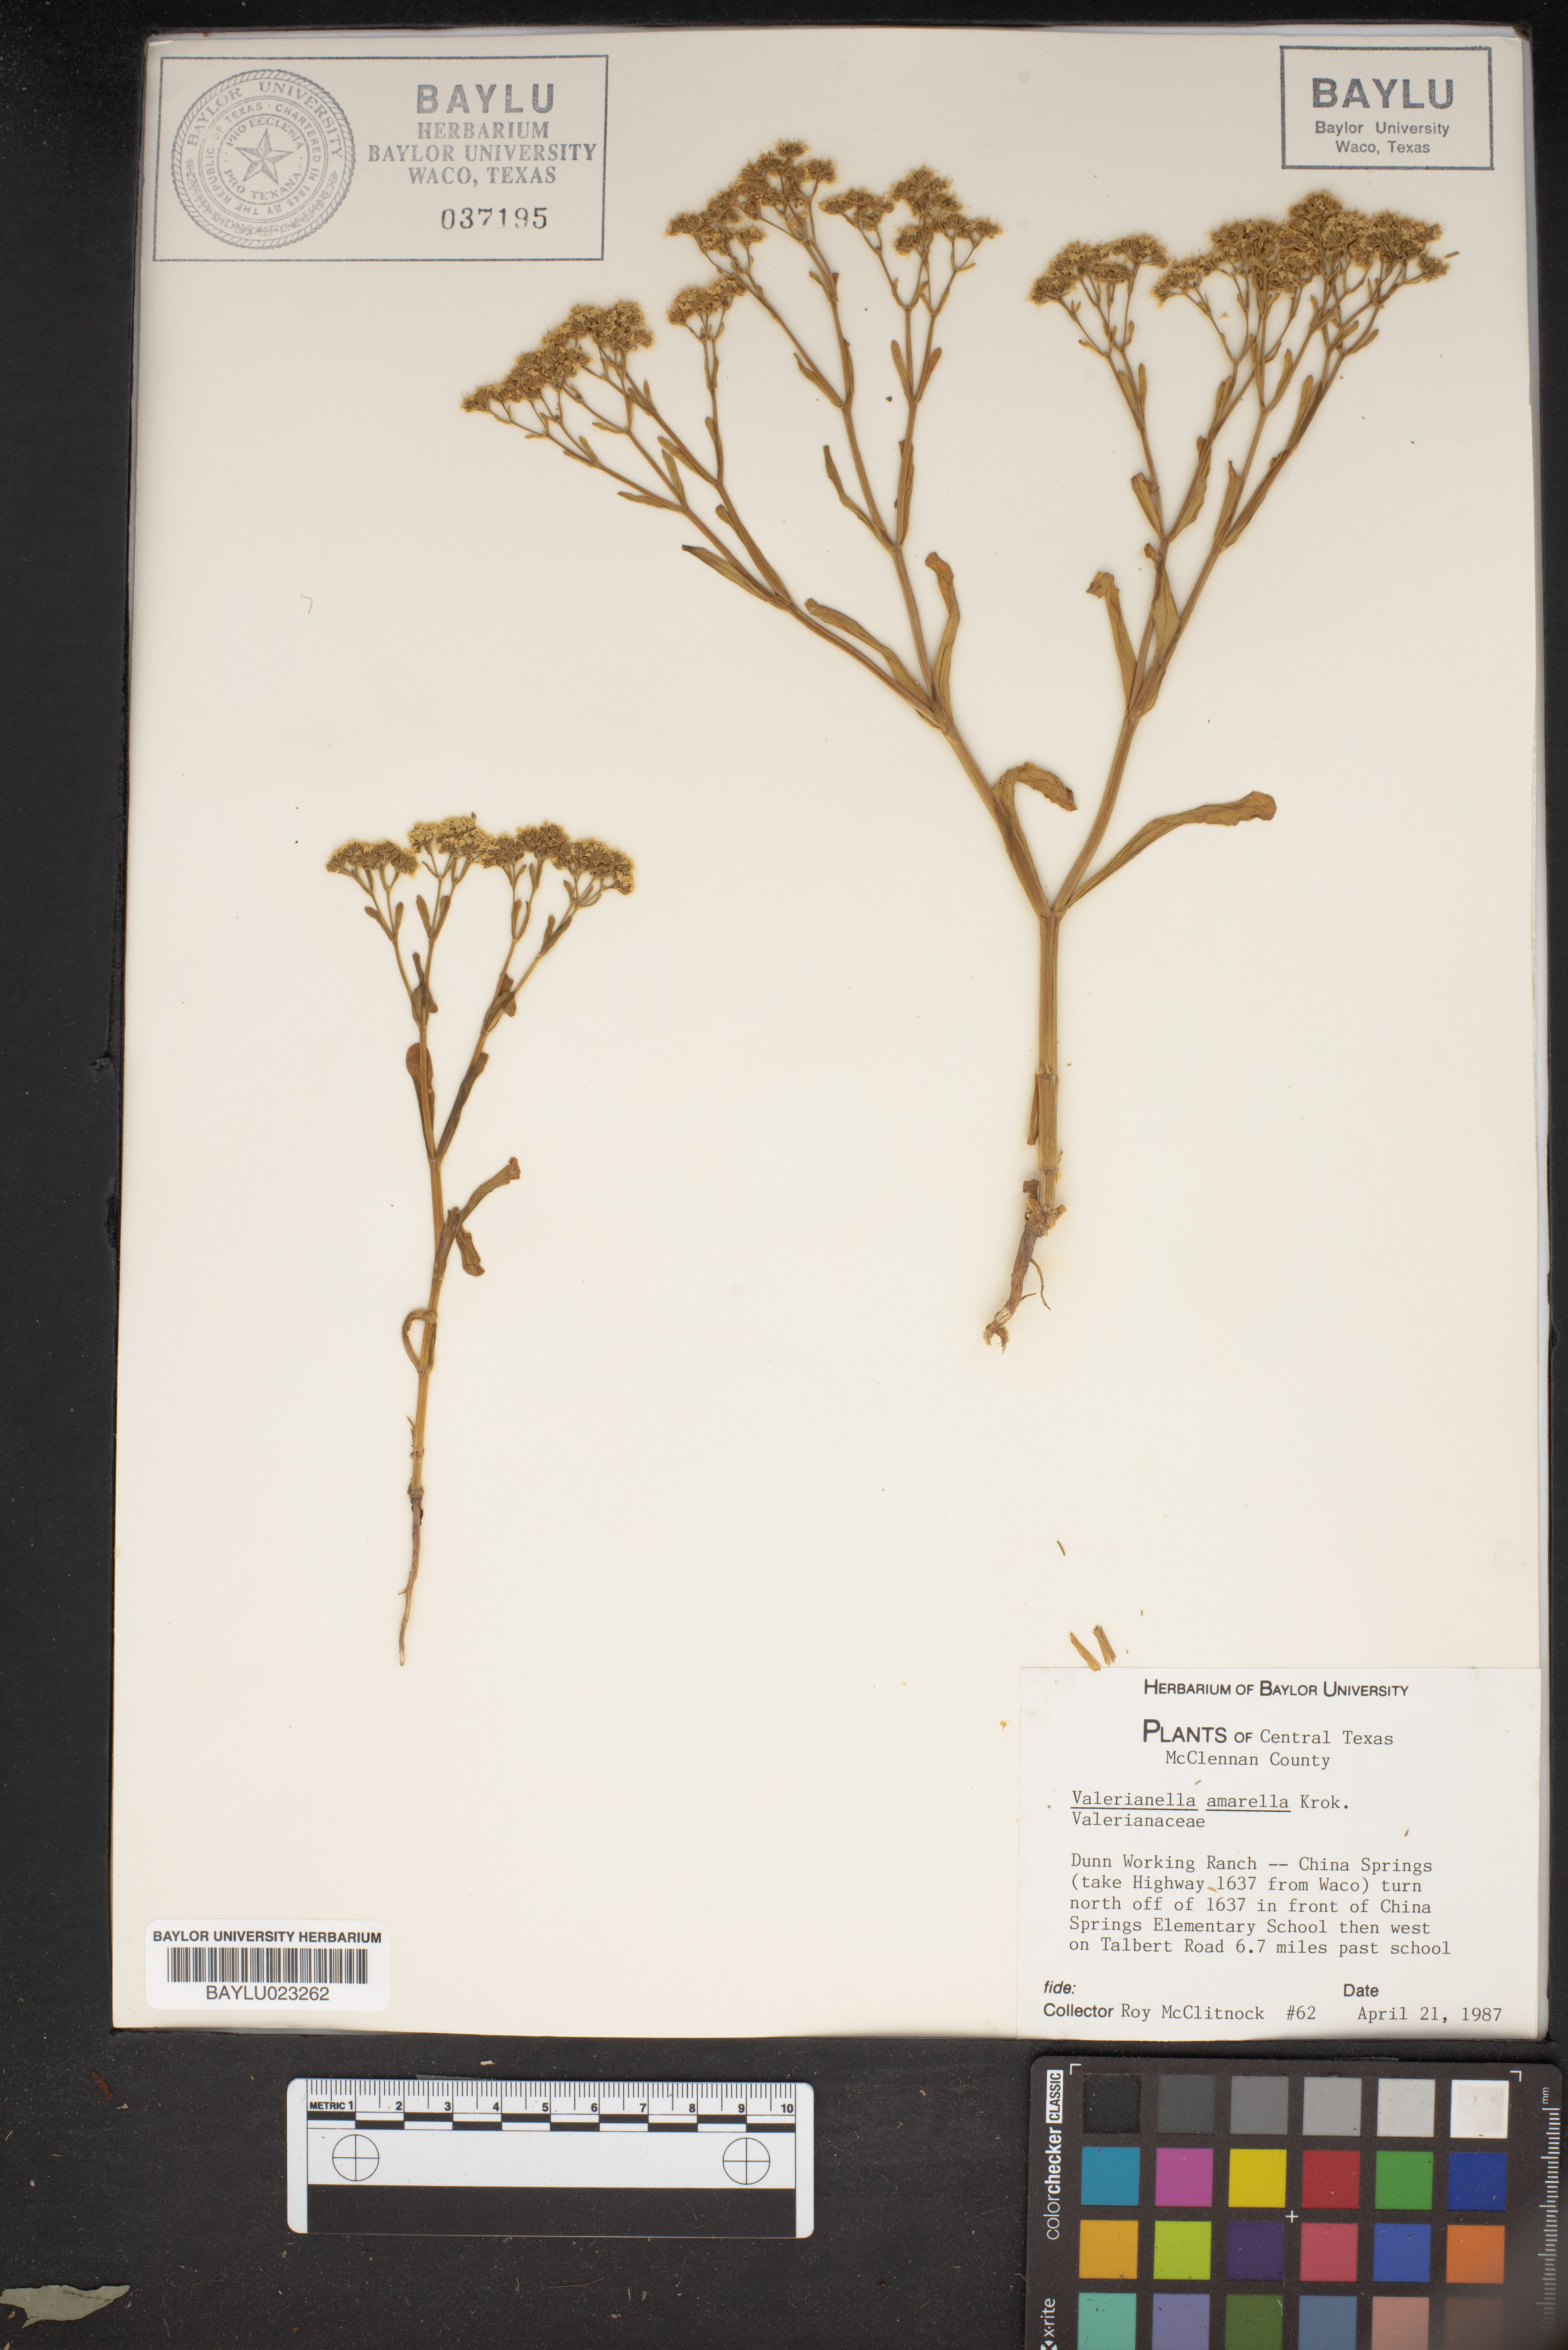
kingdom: Plantae
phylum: Tracheophyta
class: Magnoliopsida
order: Dipsacales
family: Caprifoliaceae
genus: Valerianella
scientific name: Valerianella amarella
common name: Hariy cornsalad
